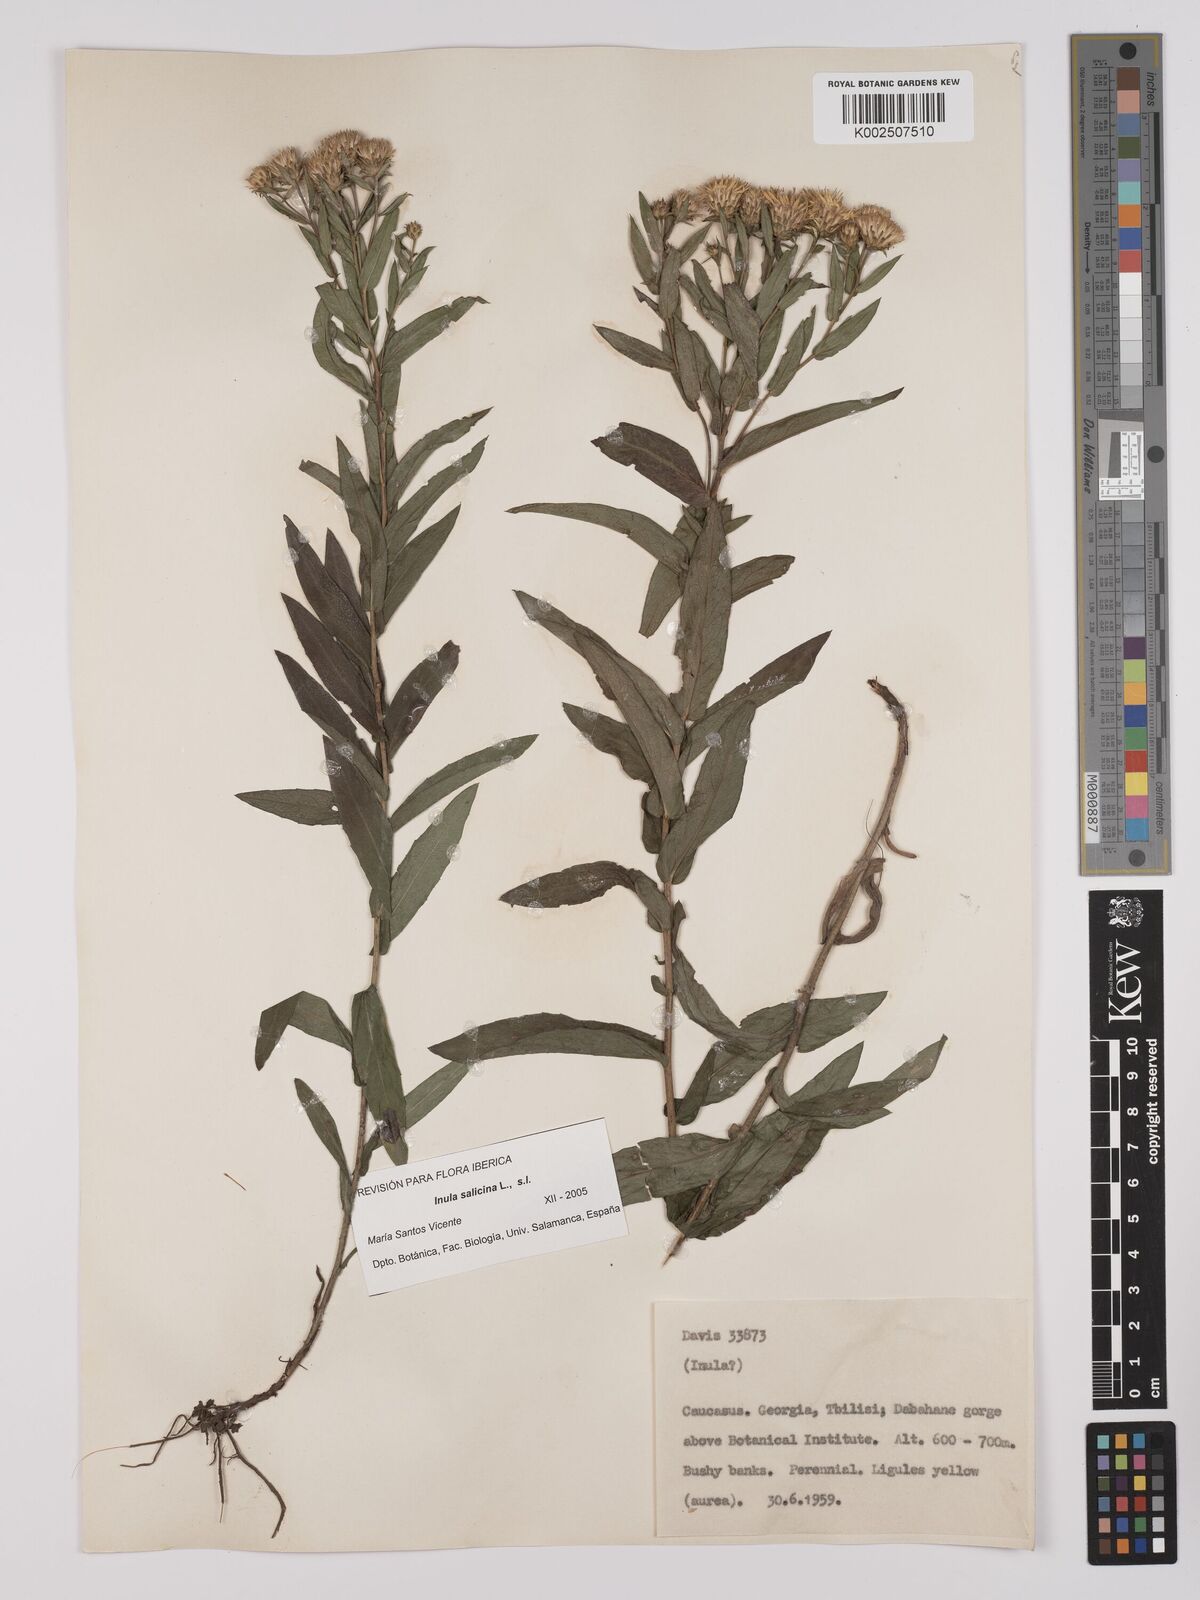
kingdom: Plantae
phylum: Tracheophyta
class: Magnoliopsida
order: Asterales
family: Asteraceae
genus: Pentanema
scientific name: Pentanema salicinum
